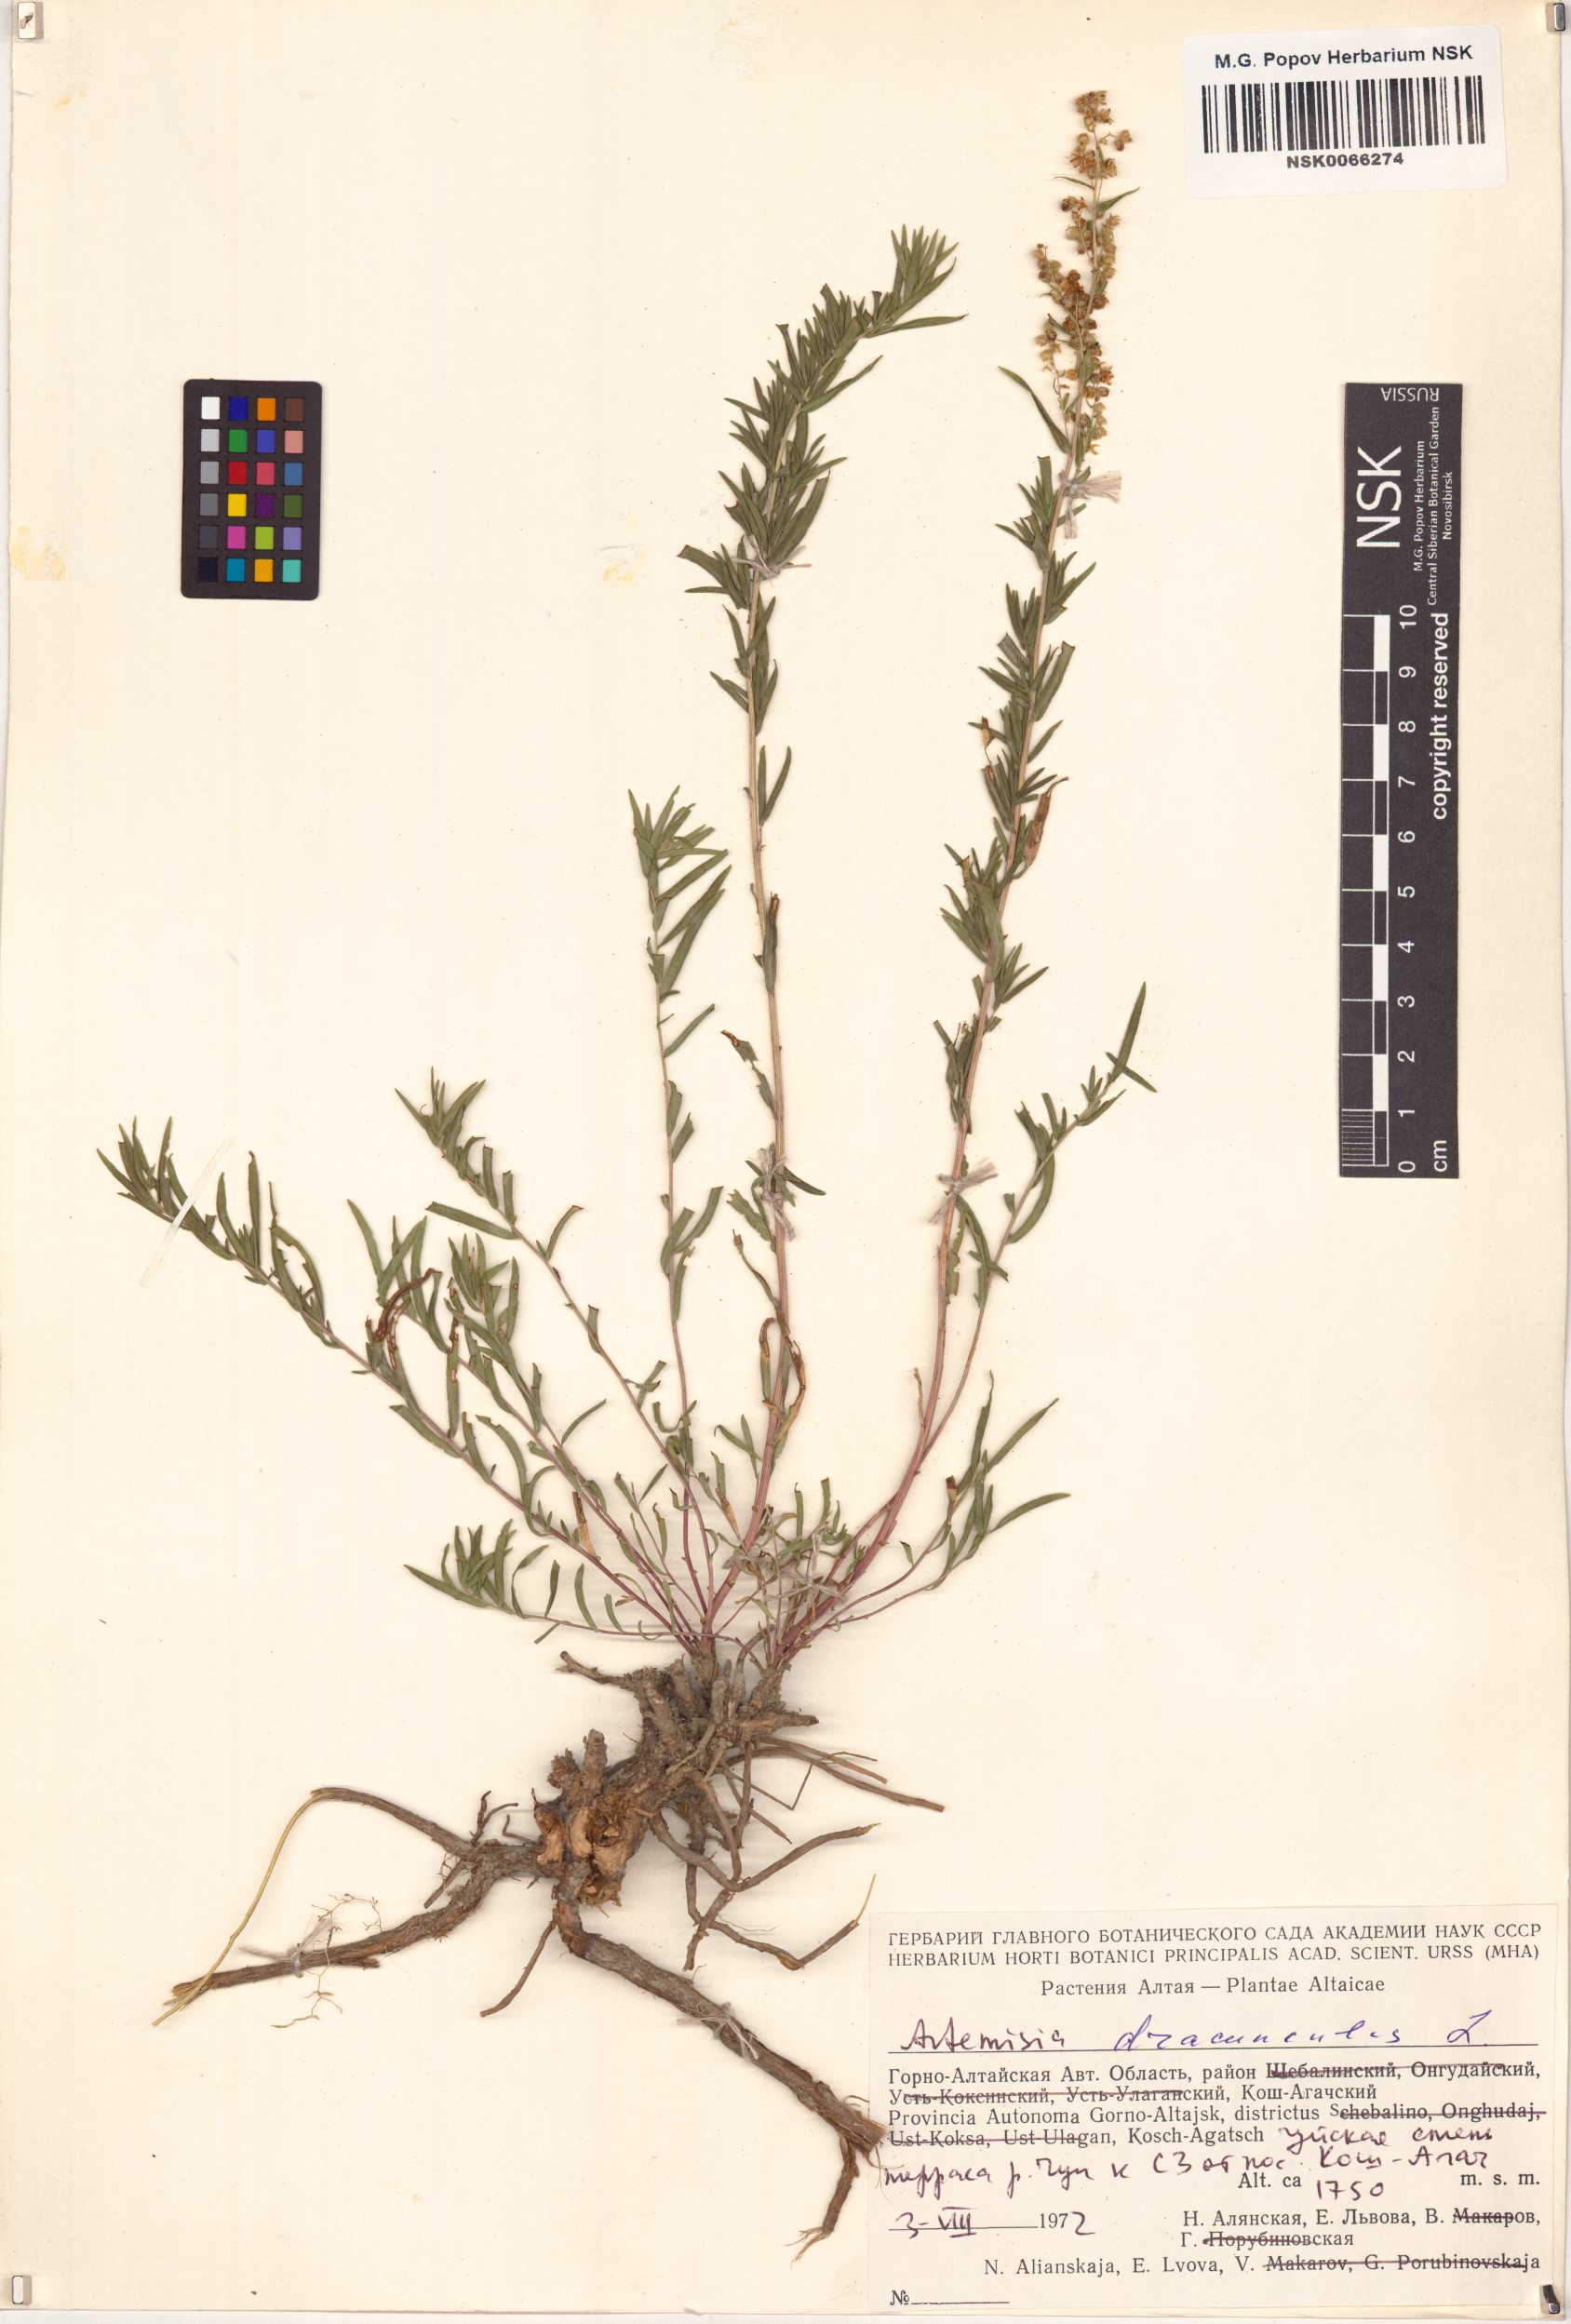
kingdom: Plantae
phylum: Tracheophyta
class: Magnoliopsida
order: Asterales
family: Asteraceae
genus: Artemisia
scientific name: Artemisia dracunculus
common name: Tarragon
